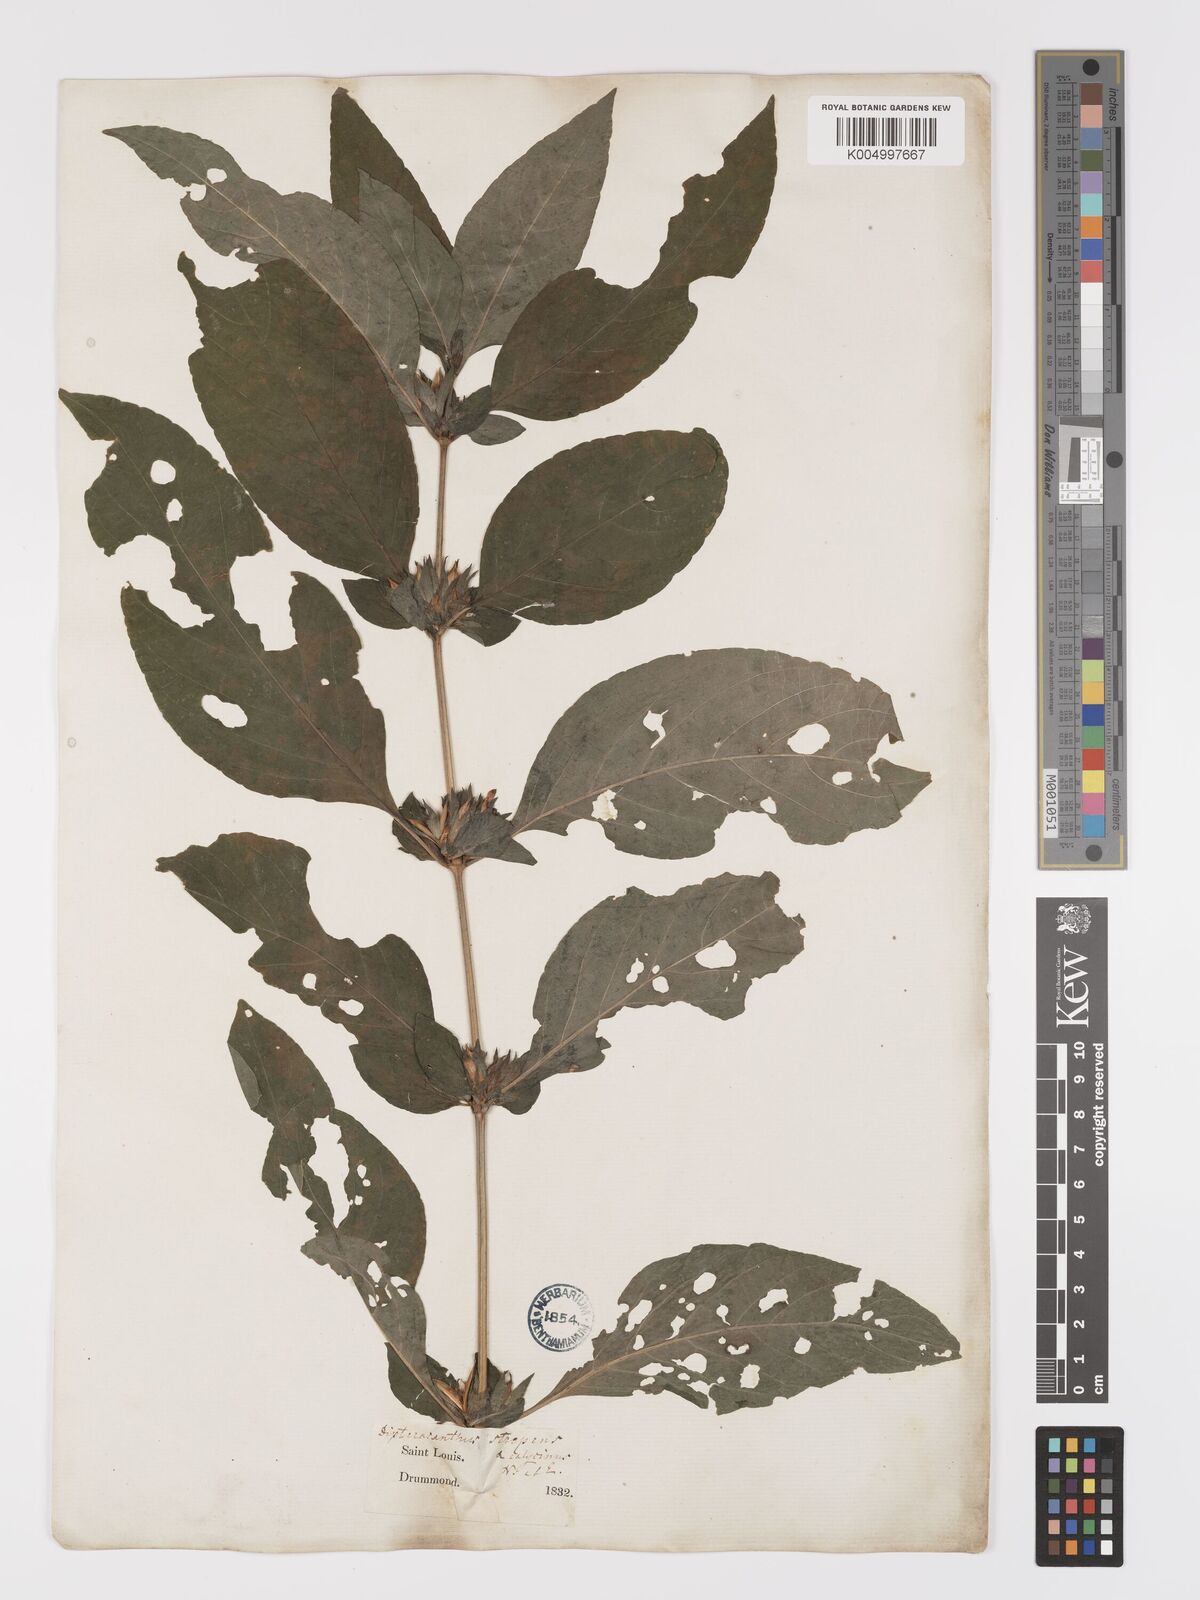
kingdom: Plantae
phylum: Tracheophyta
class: Magnoliopsida
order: Lamiales
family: Acanthaceae
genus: Ruellia
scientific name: Ruellia strepens
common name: Limestone wild petunia
